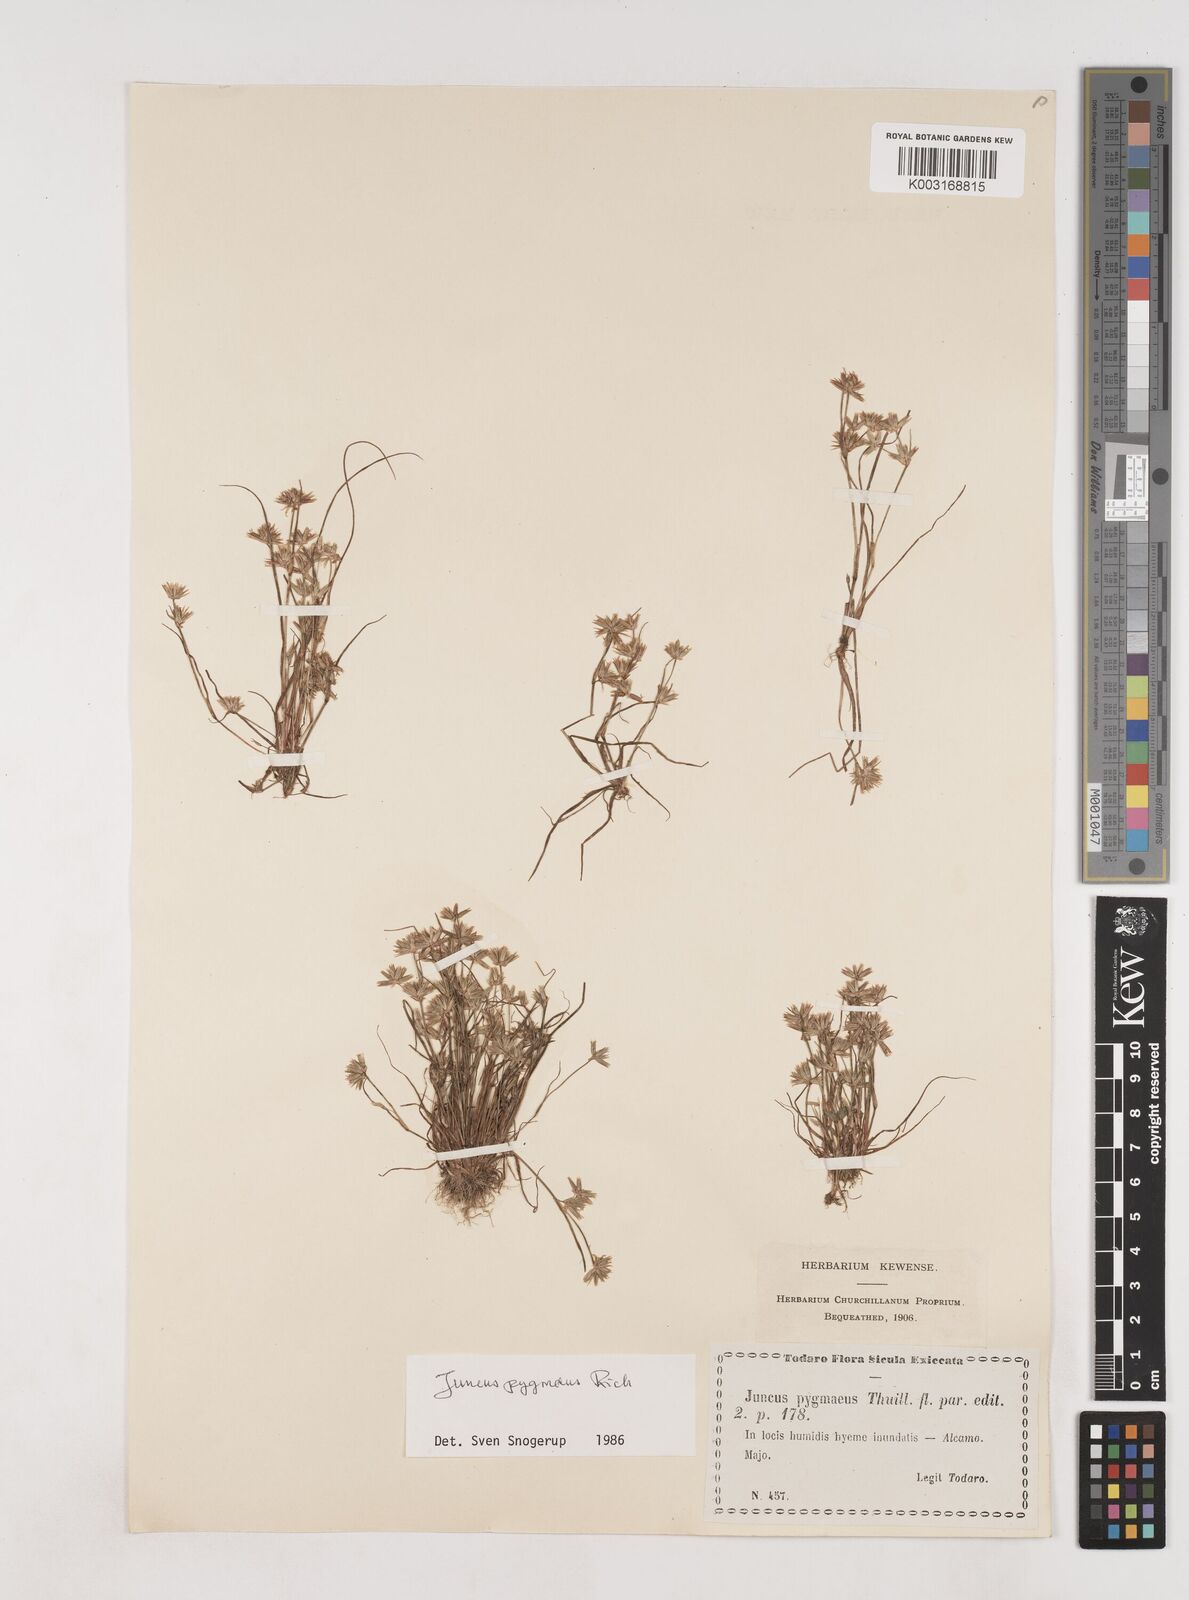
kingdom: Plantae
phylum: Tracheophyta
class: Liliopsida
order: Poales
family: Juncaceae
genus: Juncus
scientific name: Juncus pygmaeus
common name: Pigmy rush
